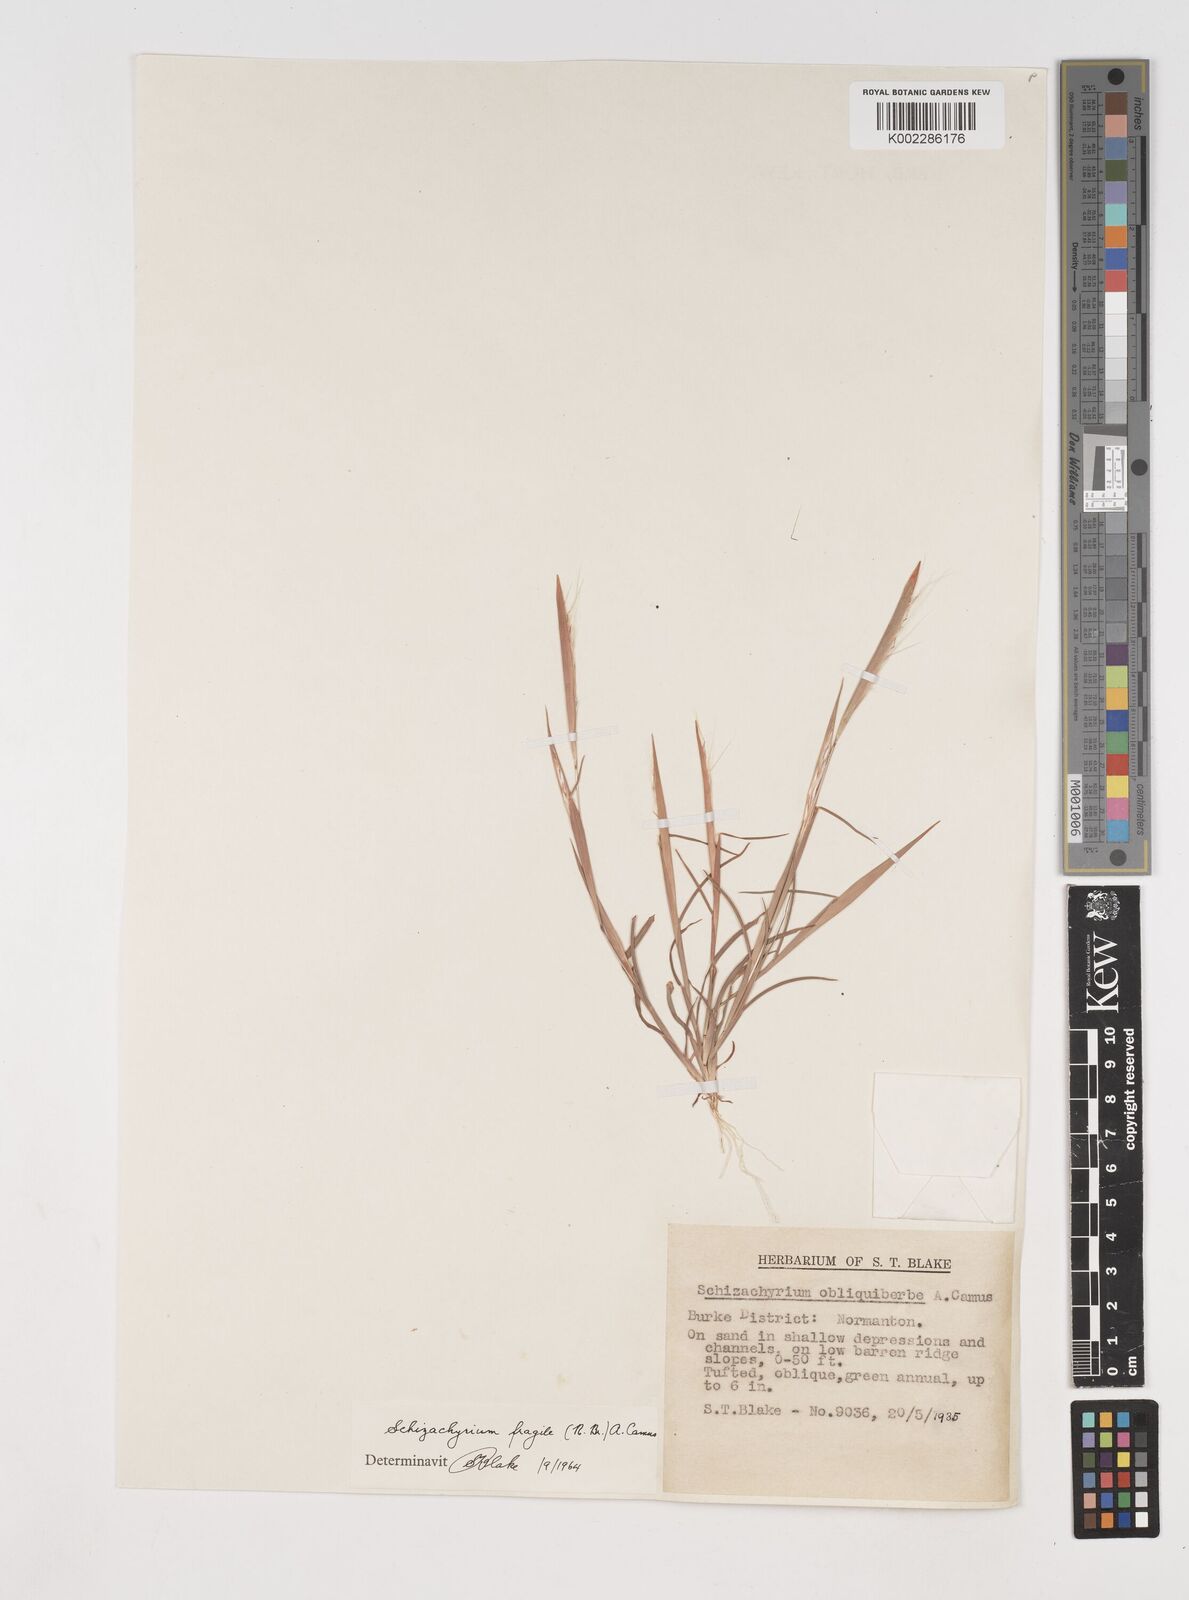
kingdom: Plantae
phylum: Tracheophyta
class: Liliopsida
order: Poales
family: Poaceae
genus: Schizachyrium
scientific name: Schizachyrium fragile
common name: Red spathe grass
